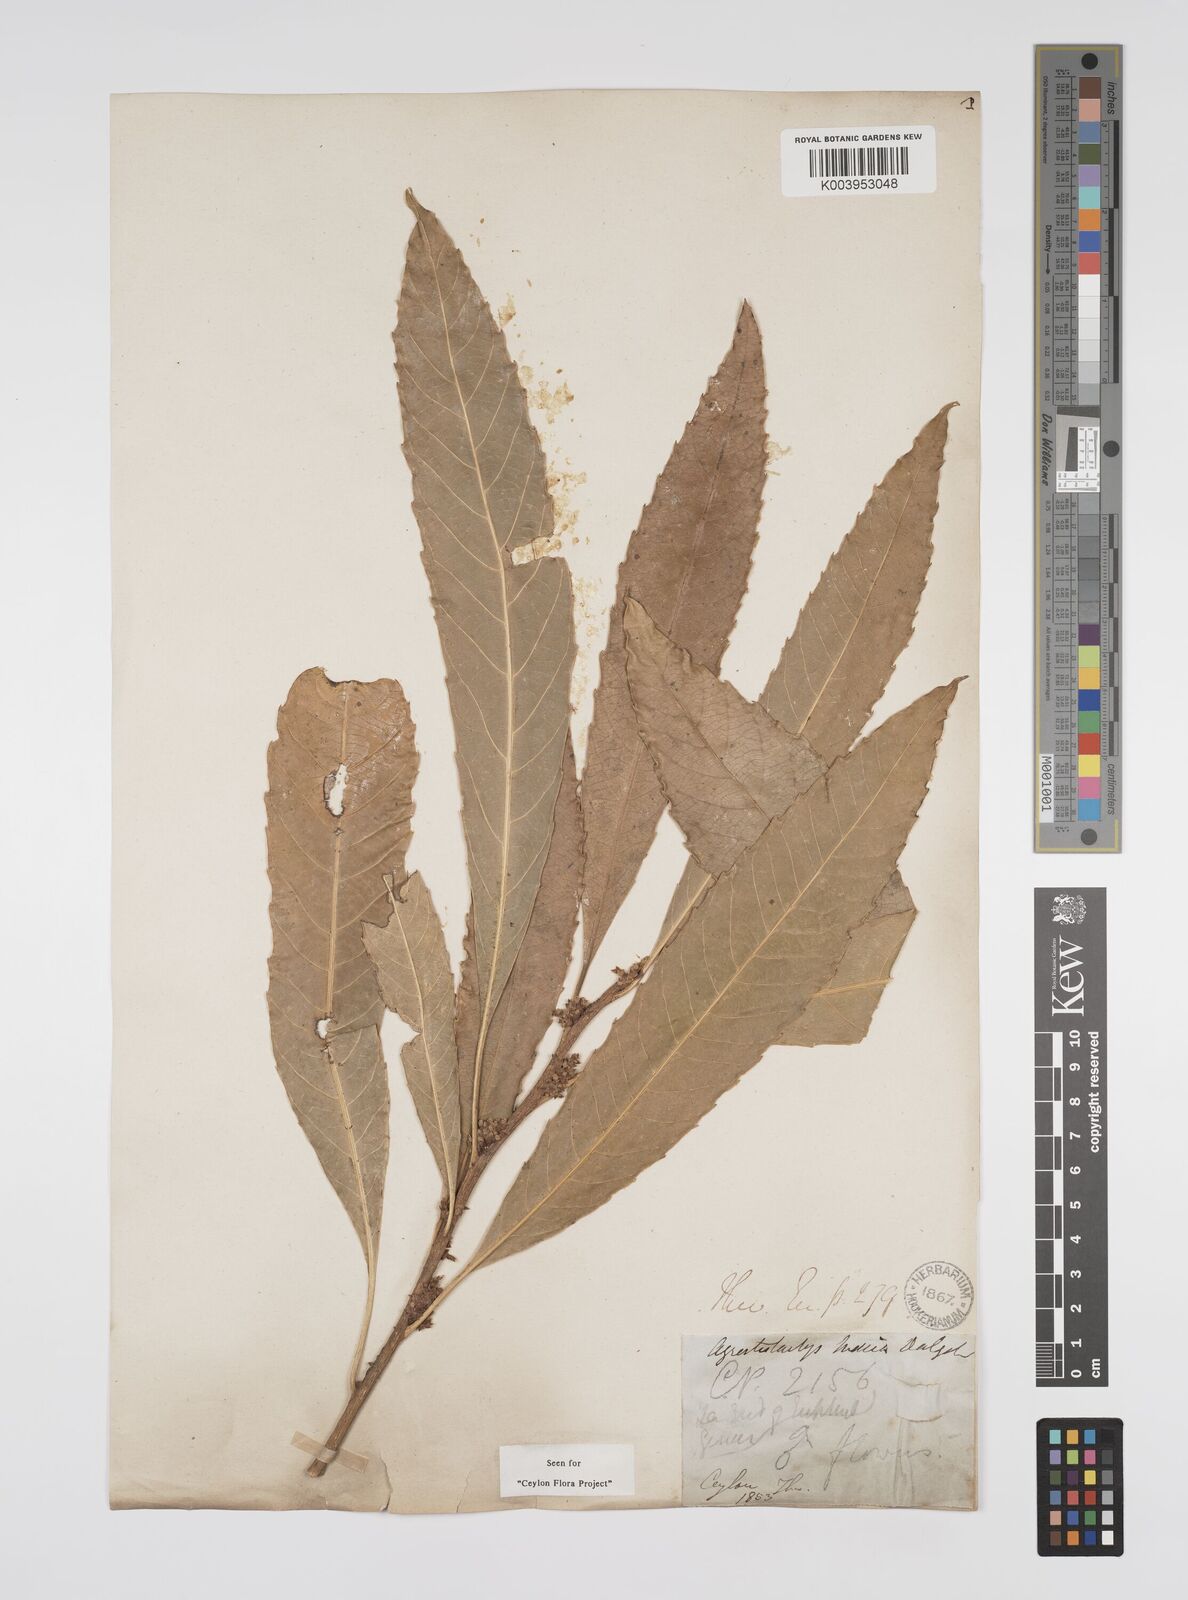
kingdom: Plantae
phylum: Tracheophyta
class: Magnoliopsida
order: Malpighiales
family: Euphorbiaceae
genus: Agrostistachys
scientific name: Agrostistachys indica
